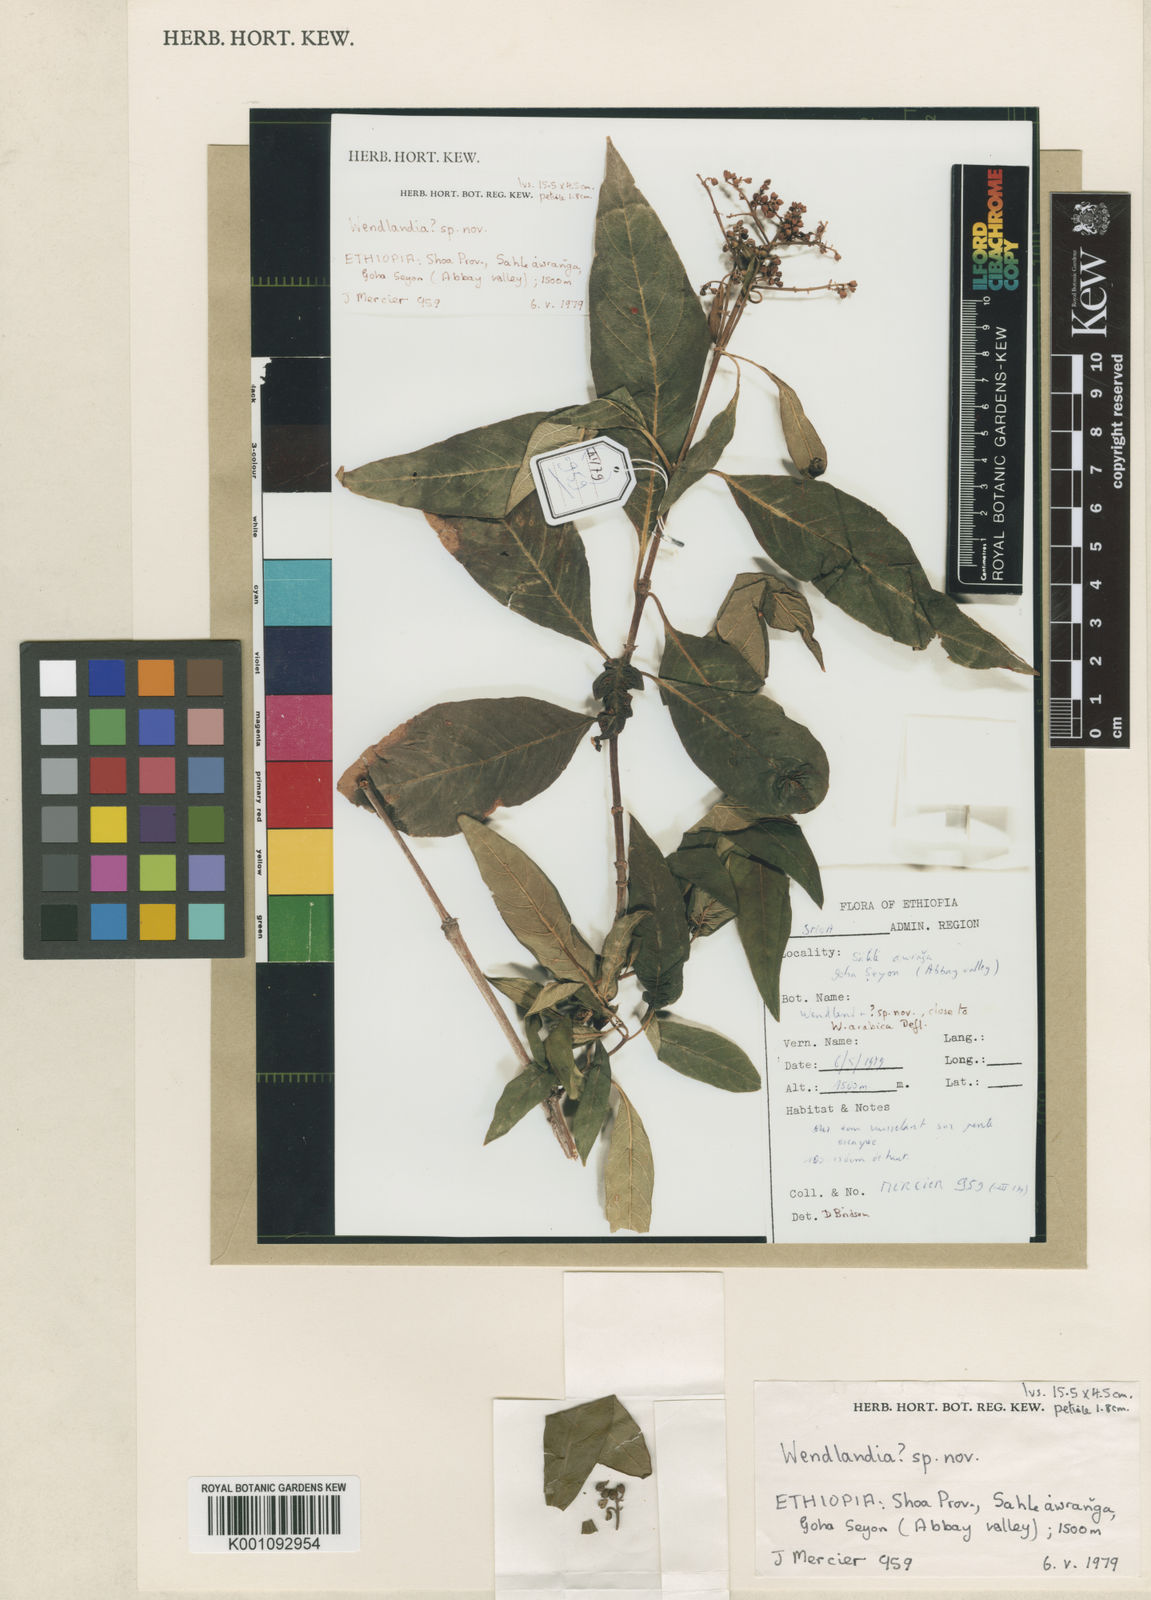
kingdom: Plantae
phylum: Tracheophyta
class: Magnoliopsida
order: Gentianales
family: Rubiaceae
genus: Wendlandia
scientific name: Wendlandia arabica
